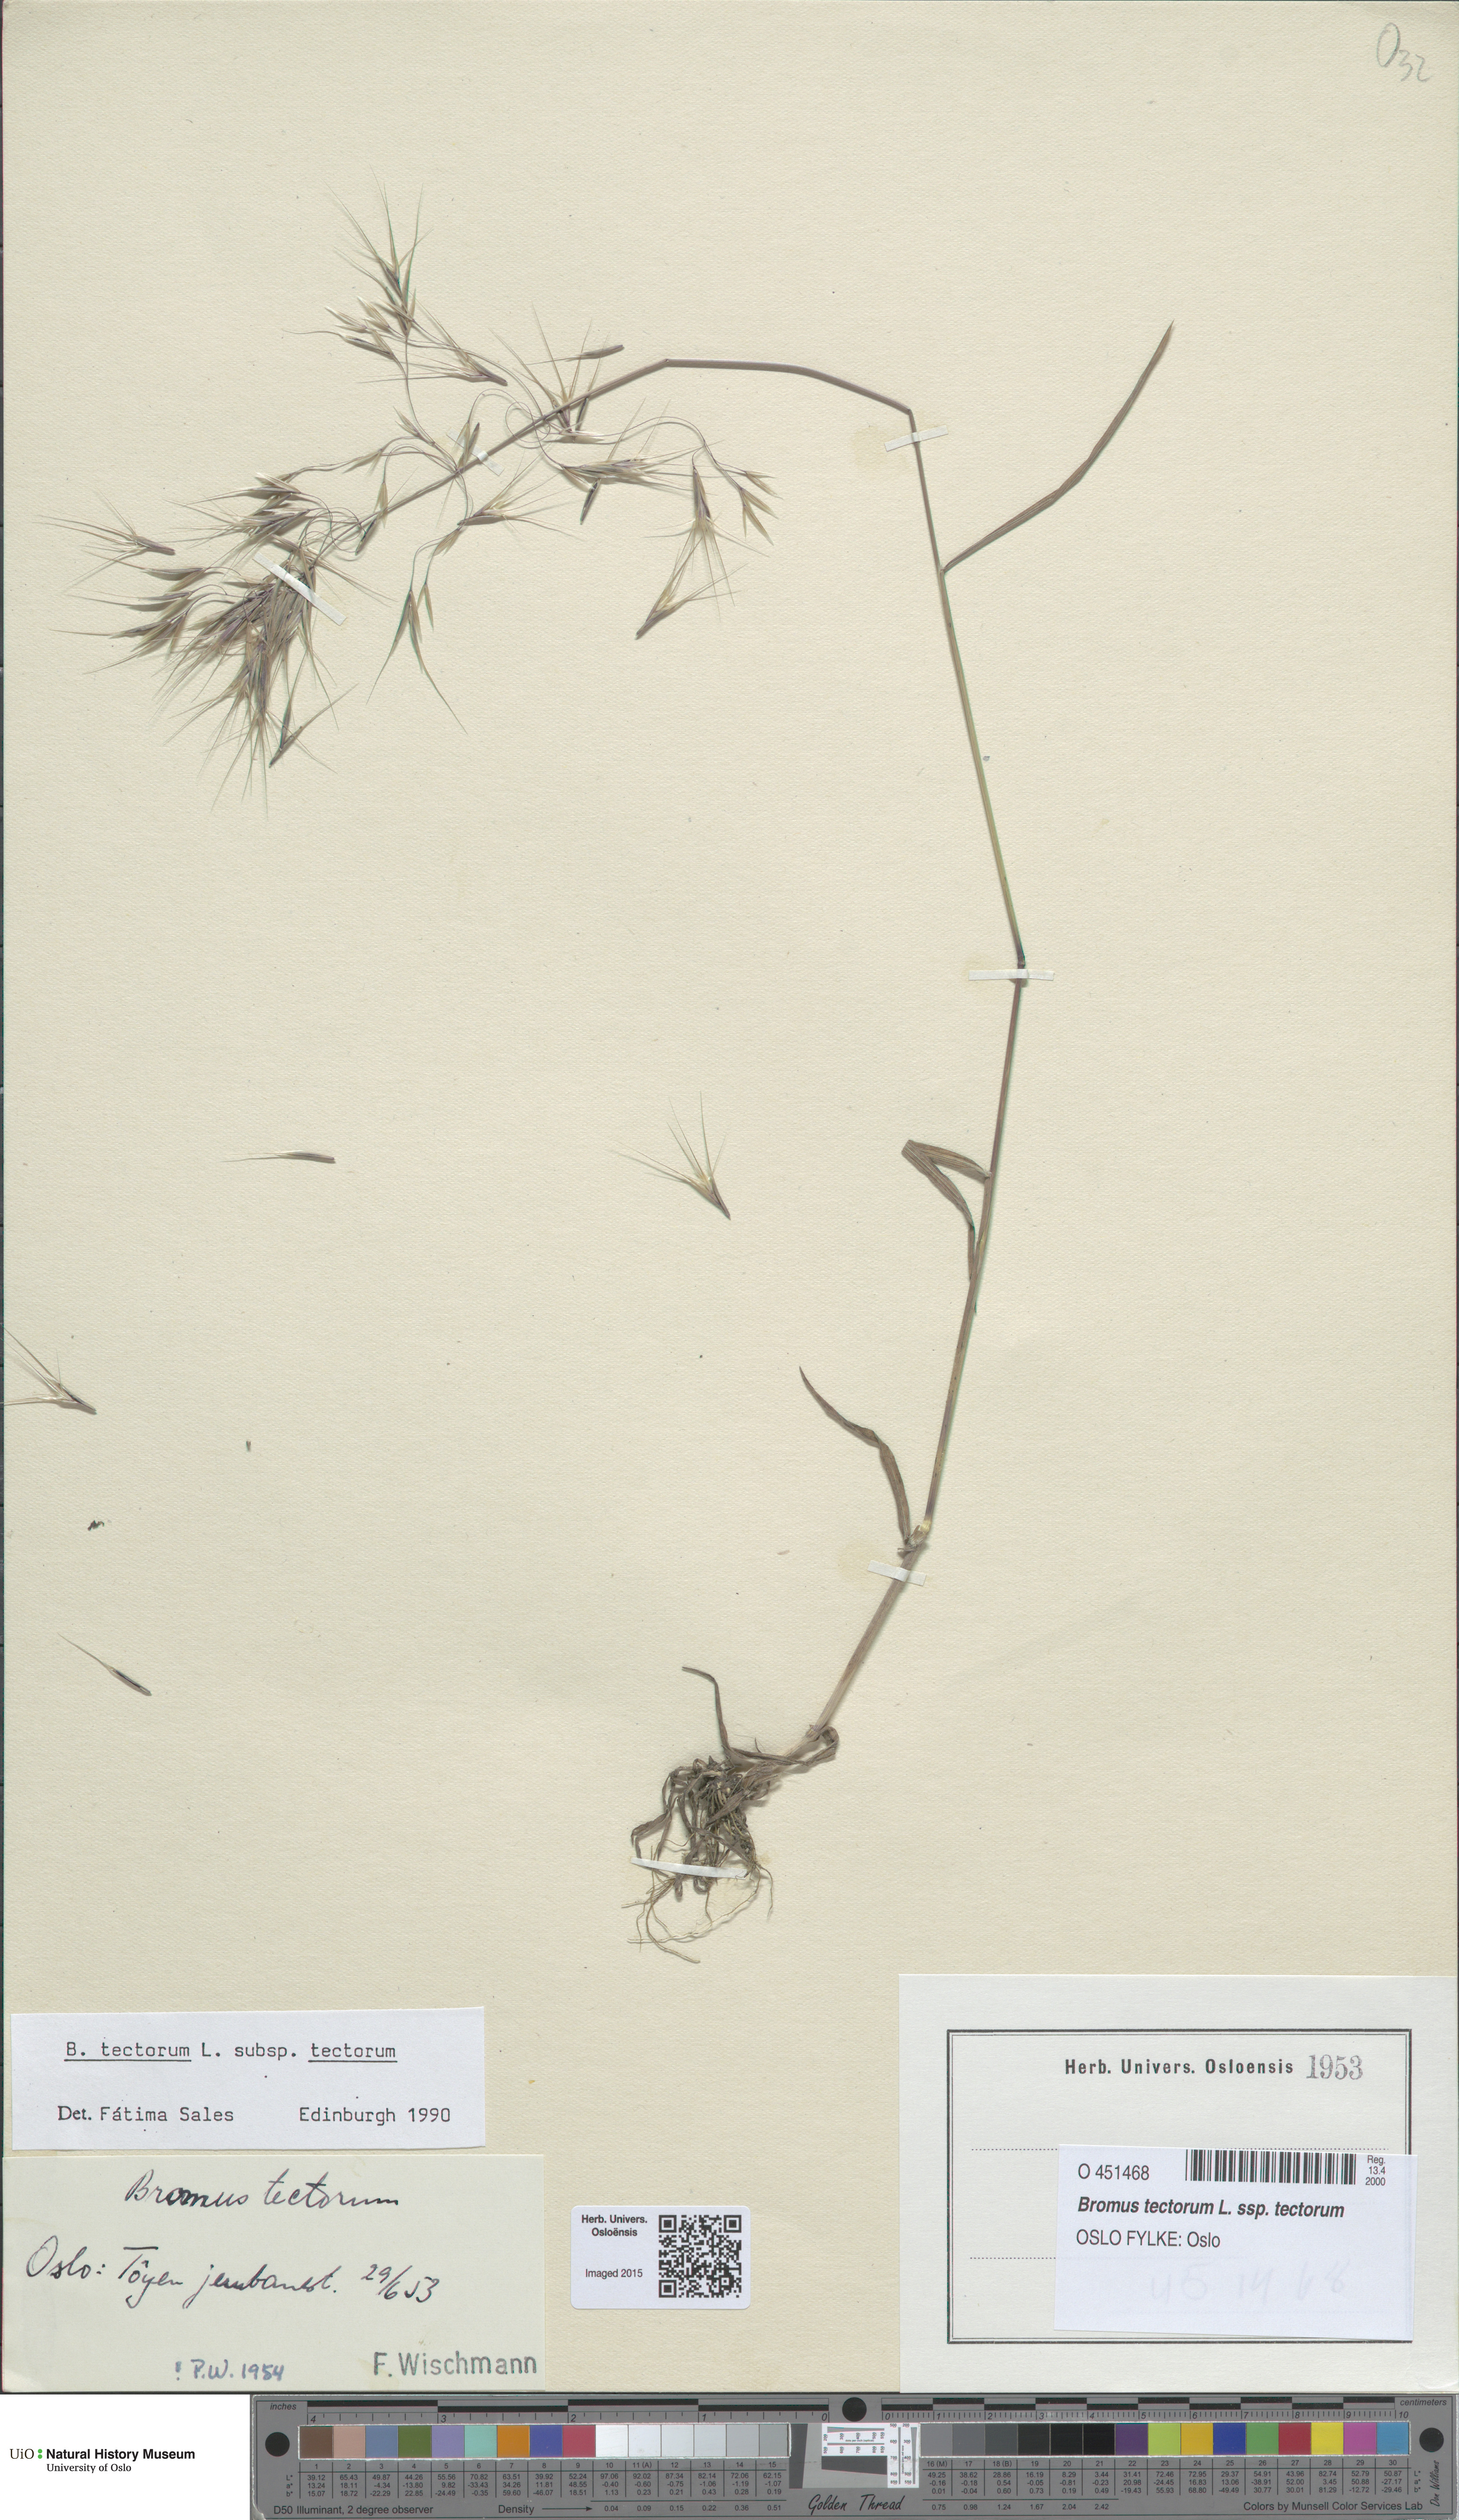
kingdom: Plantae
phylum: Tracheophyta
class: Liliopsida
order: Poales
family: Poaceae
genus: Bromus
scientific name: Bromus tectorum
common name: Cheatgrass
